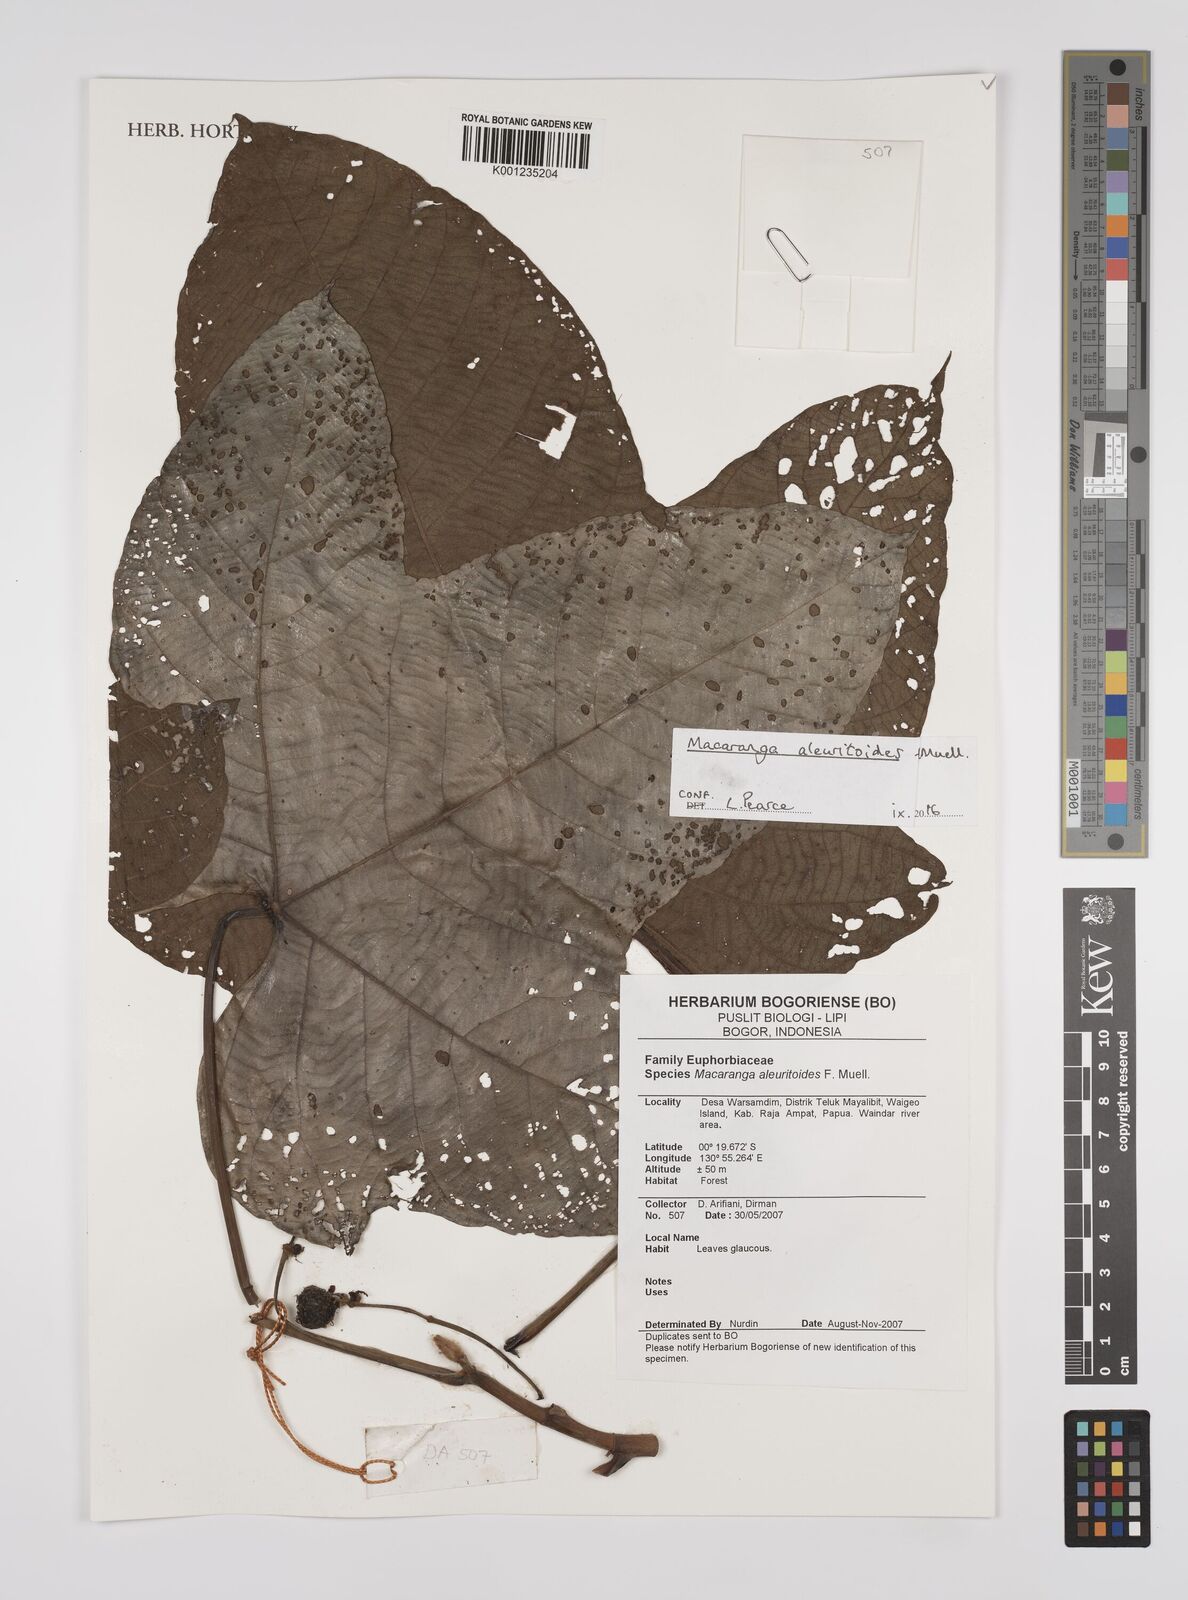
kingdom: Plantae
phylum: Tracheophyta
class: Magnoliopsida
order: Malpighiales
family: Euphorbiaceae
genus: Macaranga
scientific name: Macaranga aleuritoides
